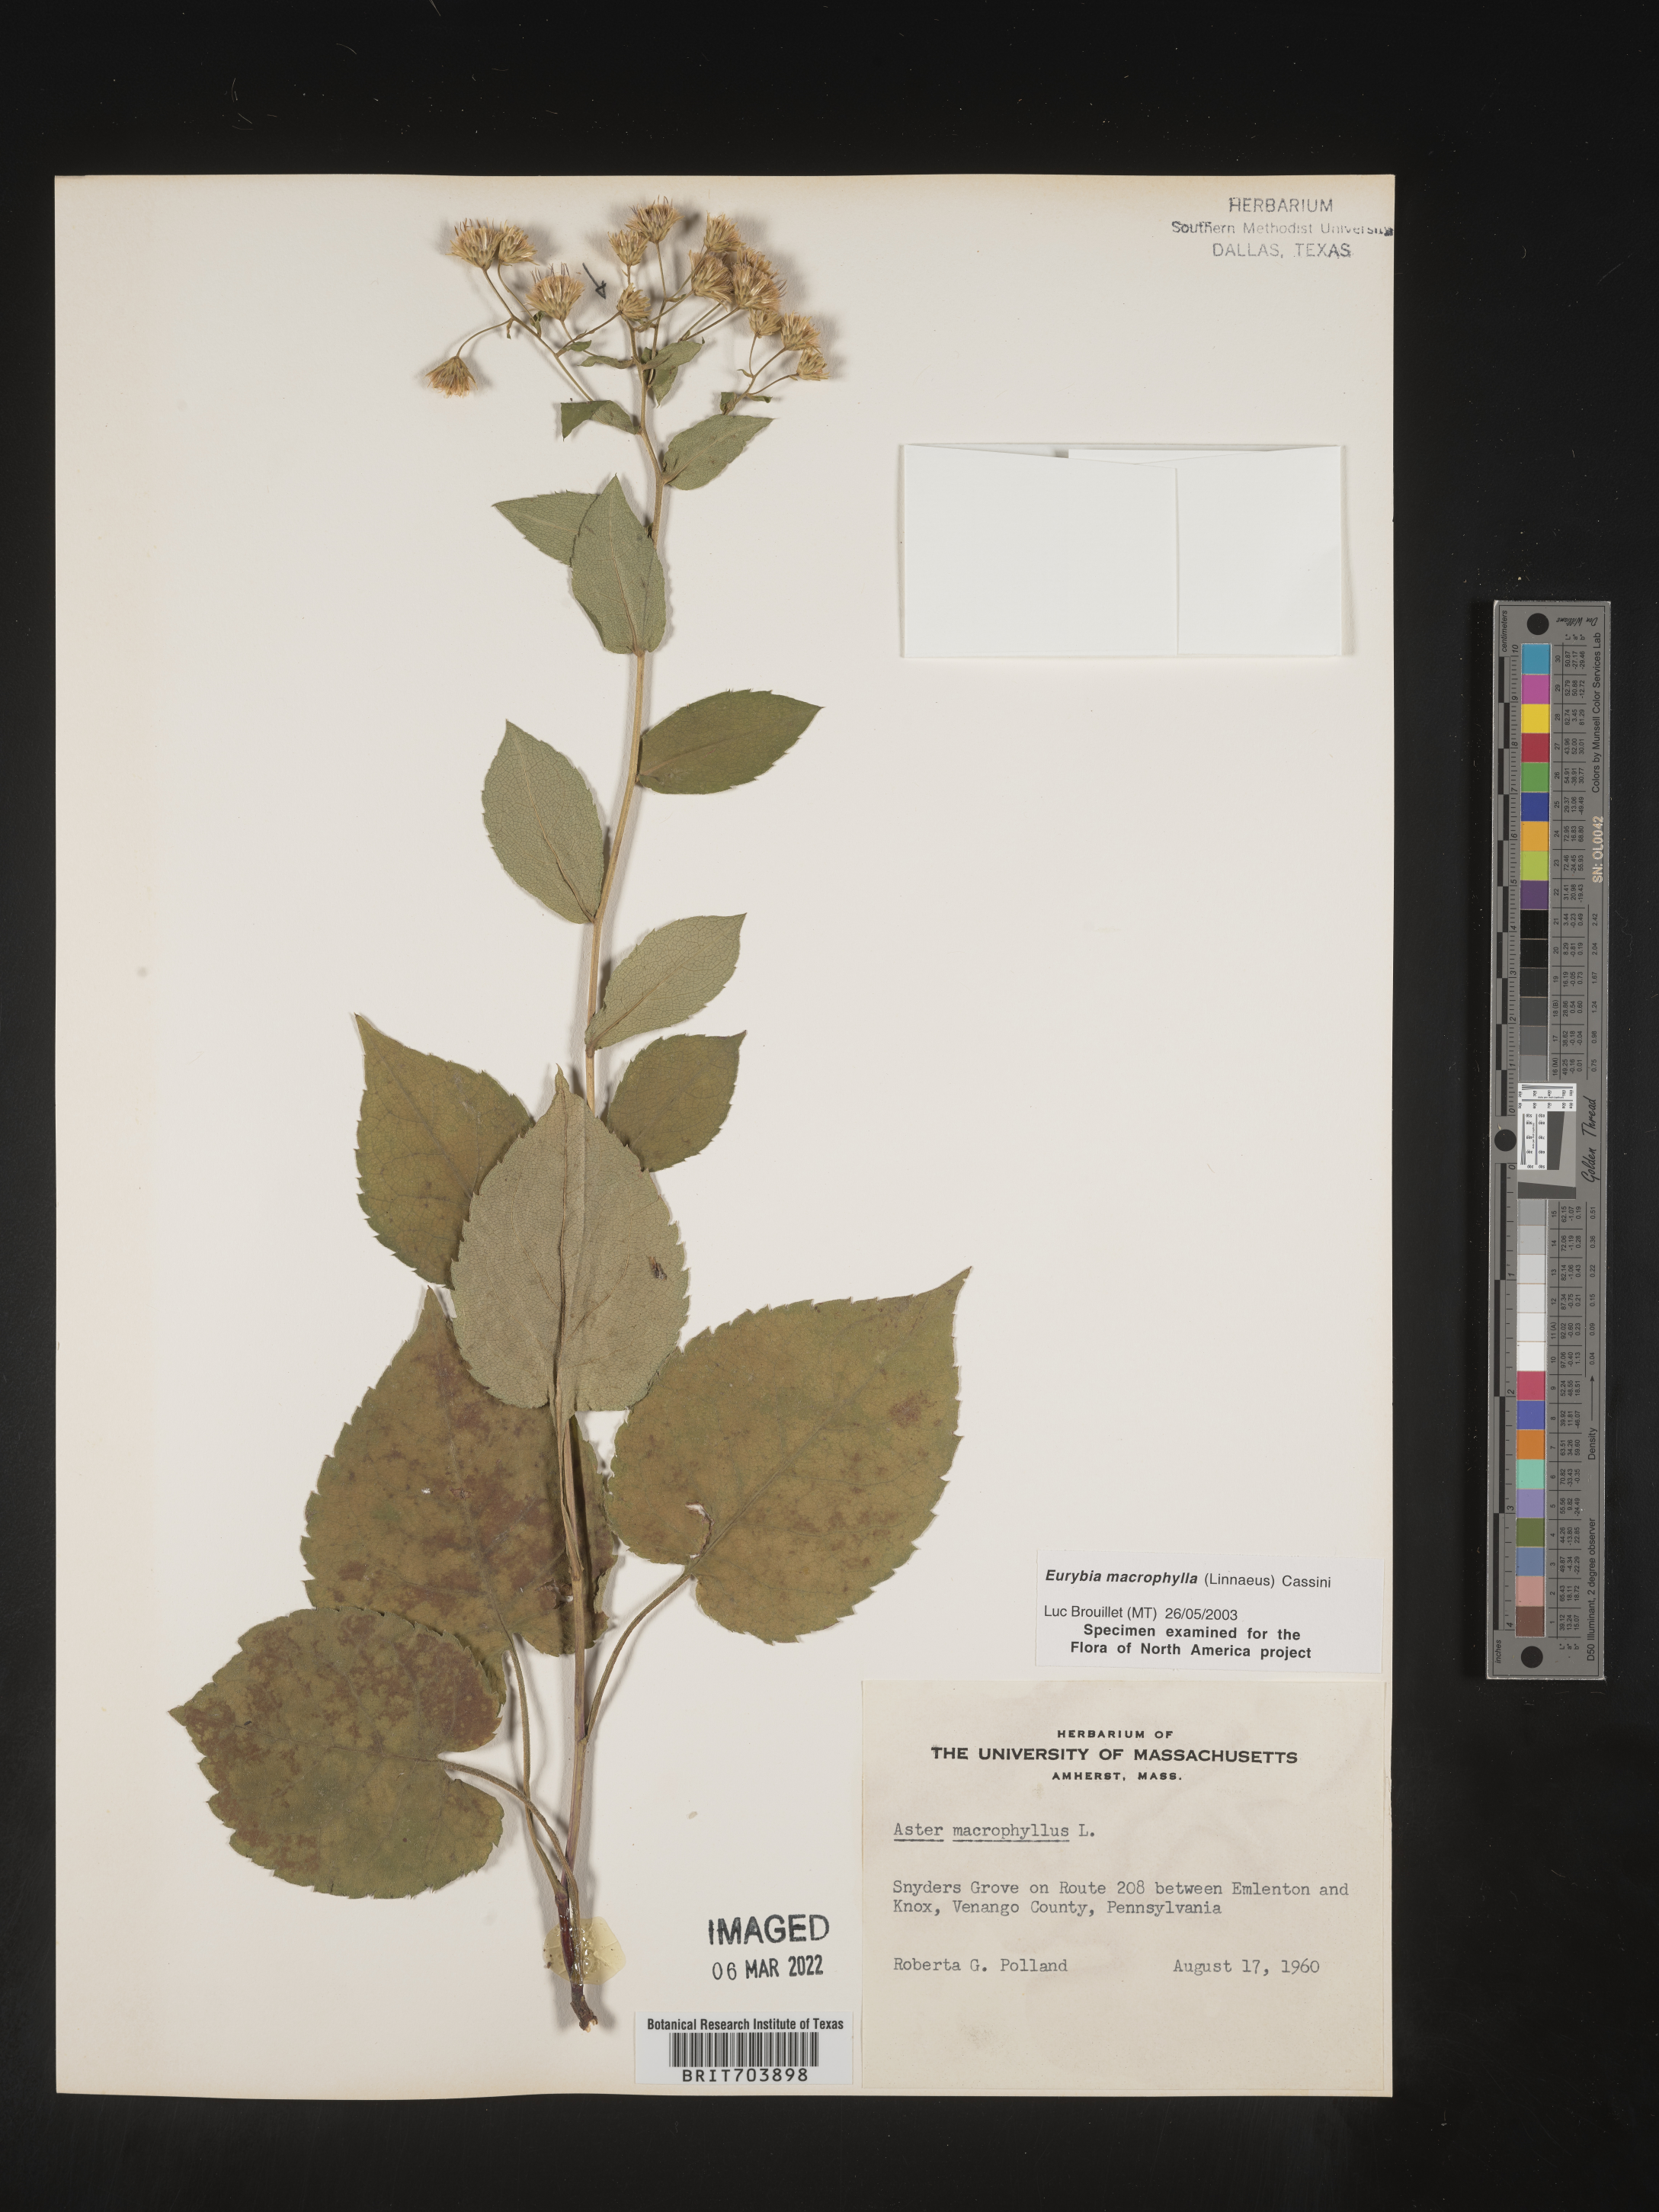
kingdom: Plantae
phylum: Tracheophyta
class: Magnoliopsida
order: Asterales
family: Asteraceae
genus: Eurybia
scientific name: Eurybia macrophylla
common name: Big-leaved aster
